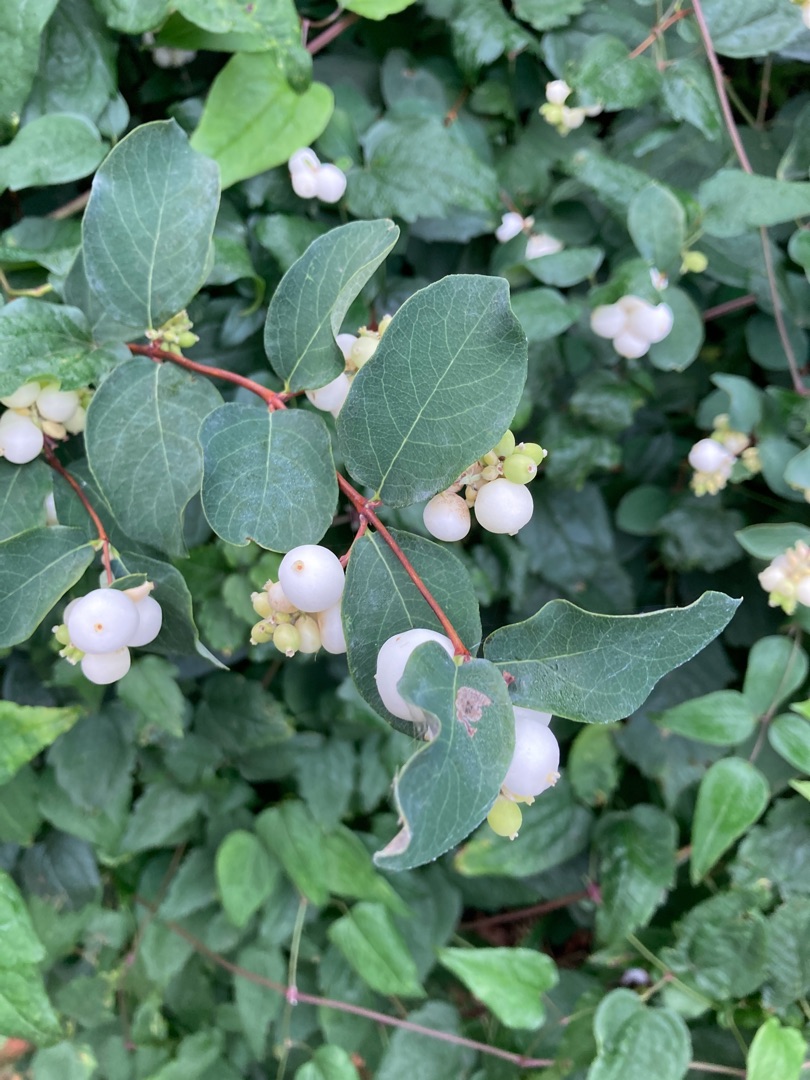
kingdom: Plantae
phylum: Tracheophyta
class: Magnoliopsida
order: Dipsacales
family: Caprifoliaceae
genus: Symphoricarpos
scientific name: Symphoricarpos albus
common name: Almindelig snebær
